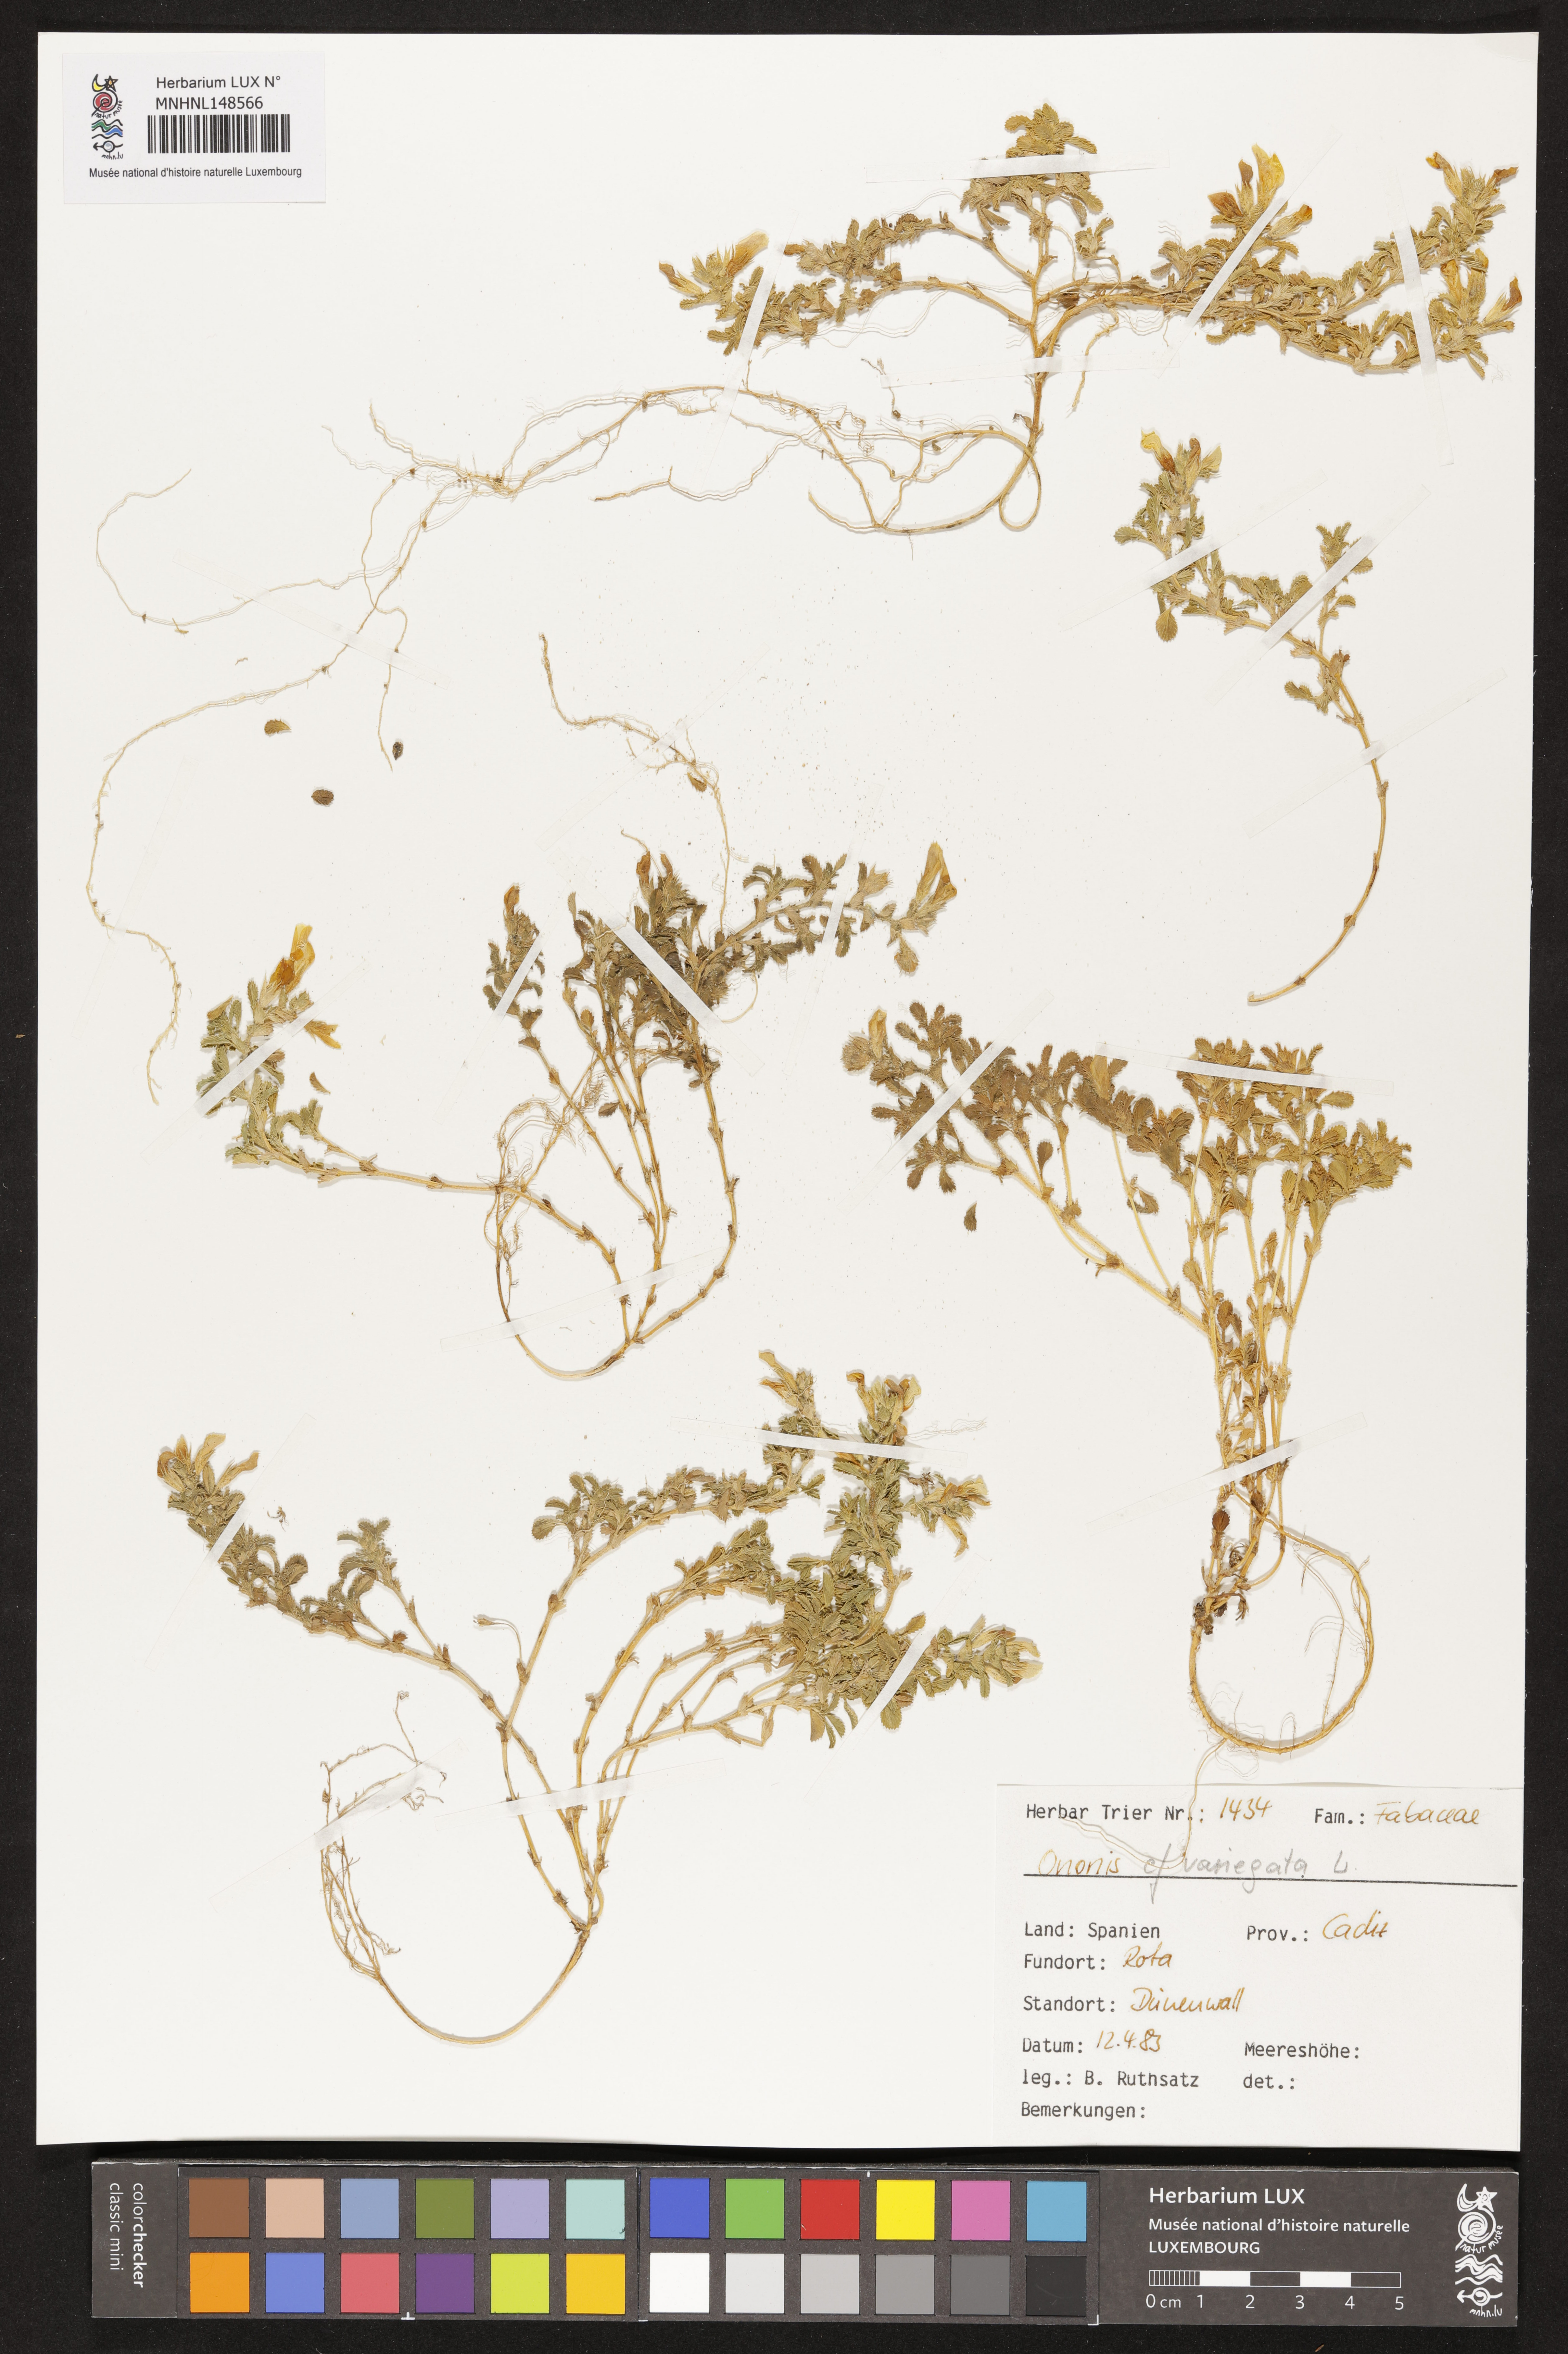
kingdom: Plantae
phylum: Tracheophyta
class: Magnoliopsida
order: Fabales
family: Fabaceae
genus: Ononis
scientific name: Ononis variegata
